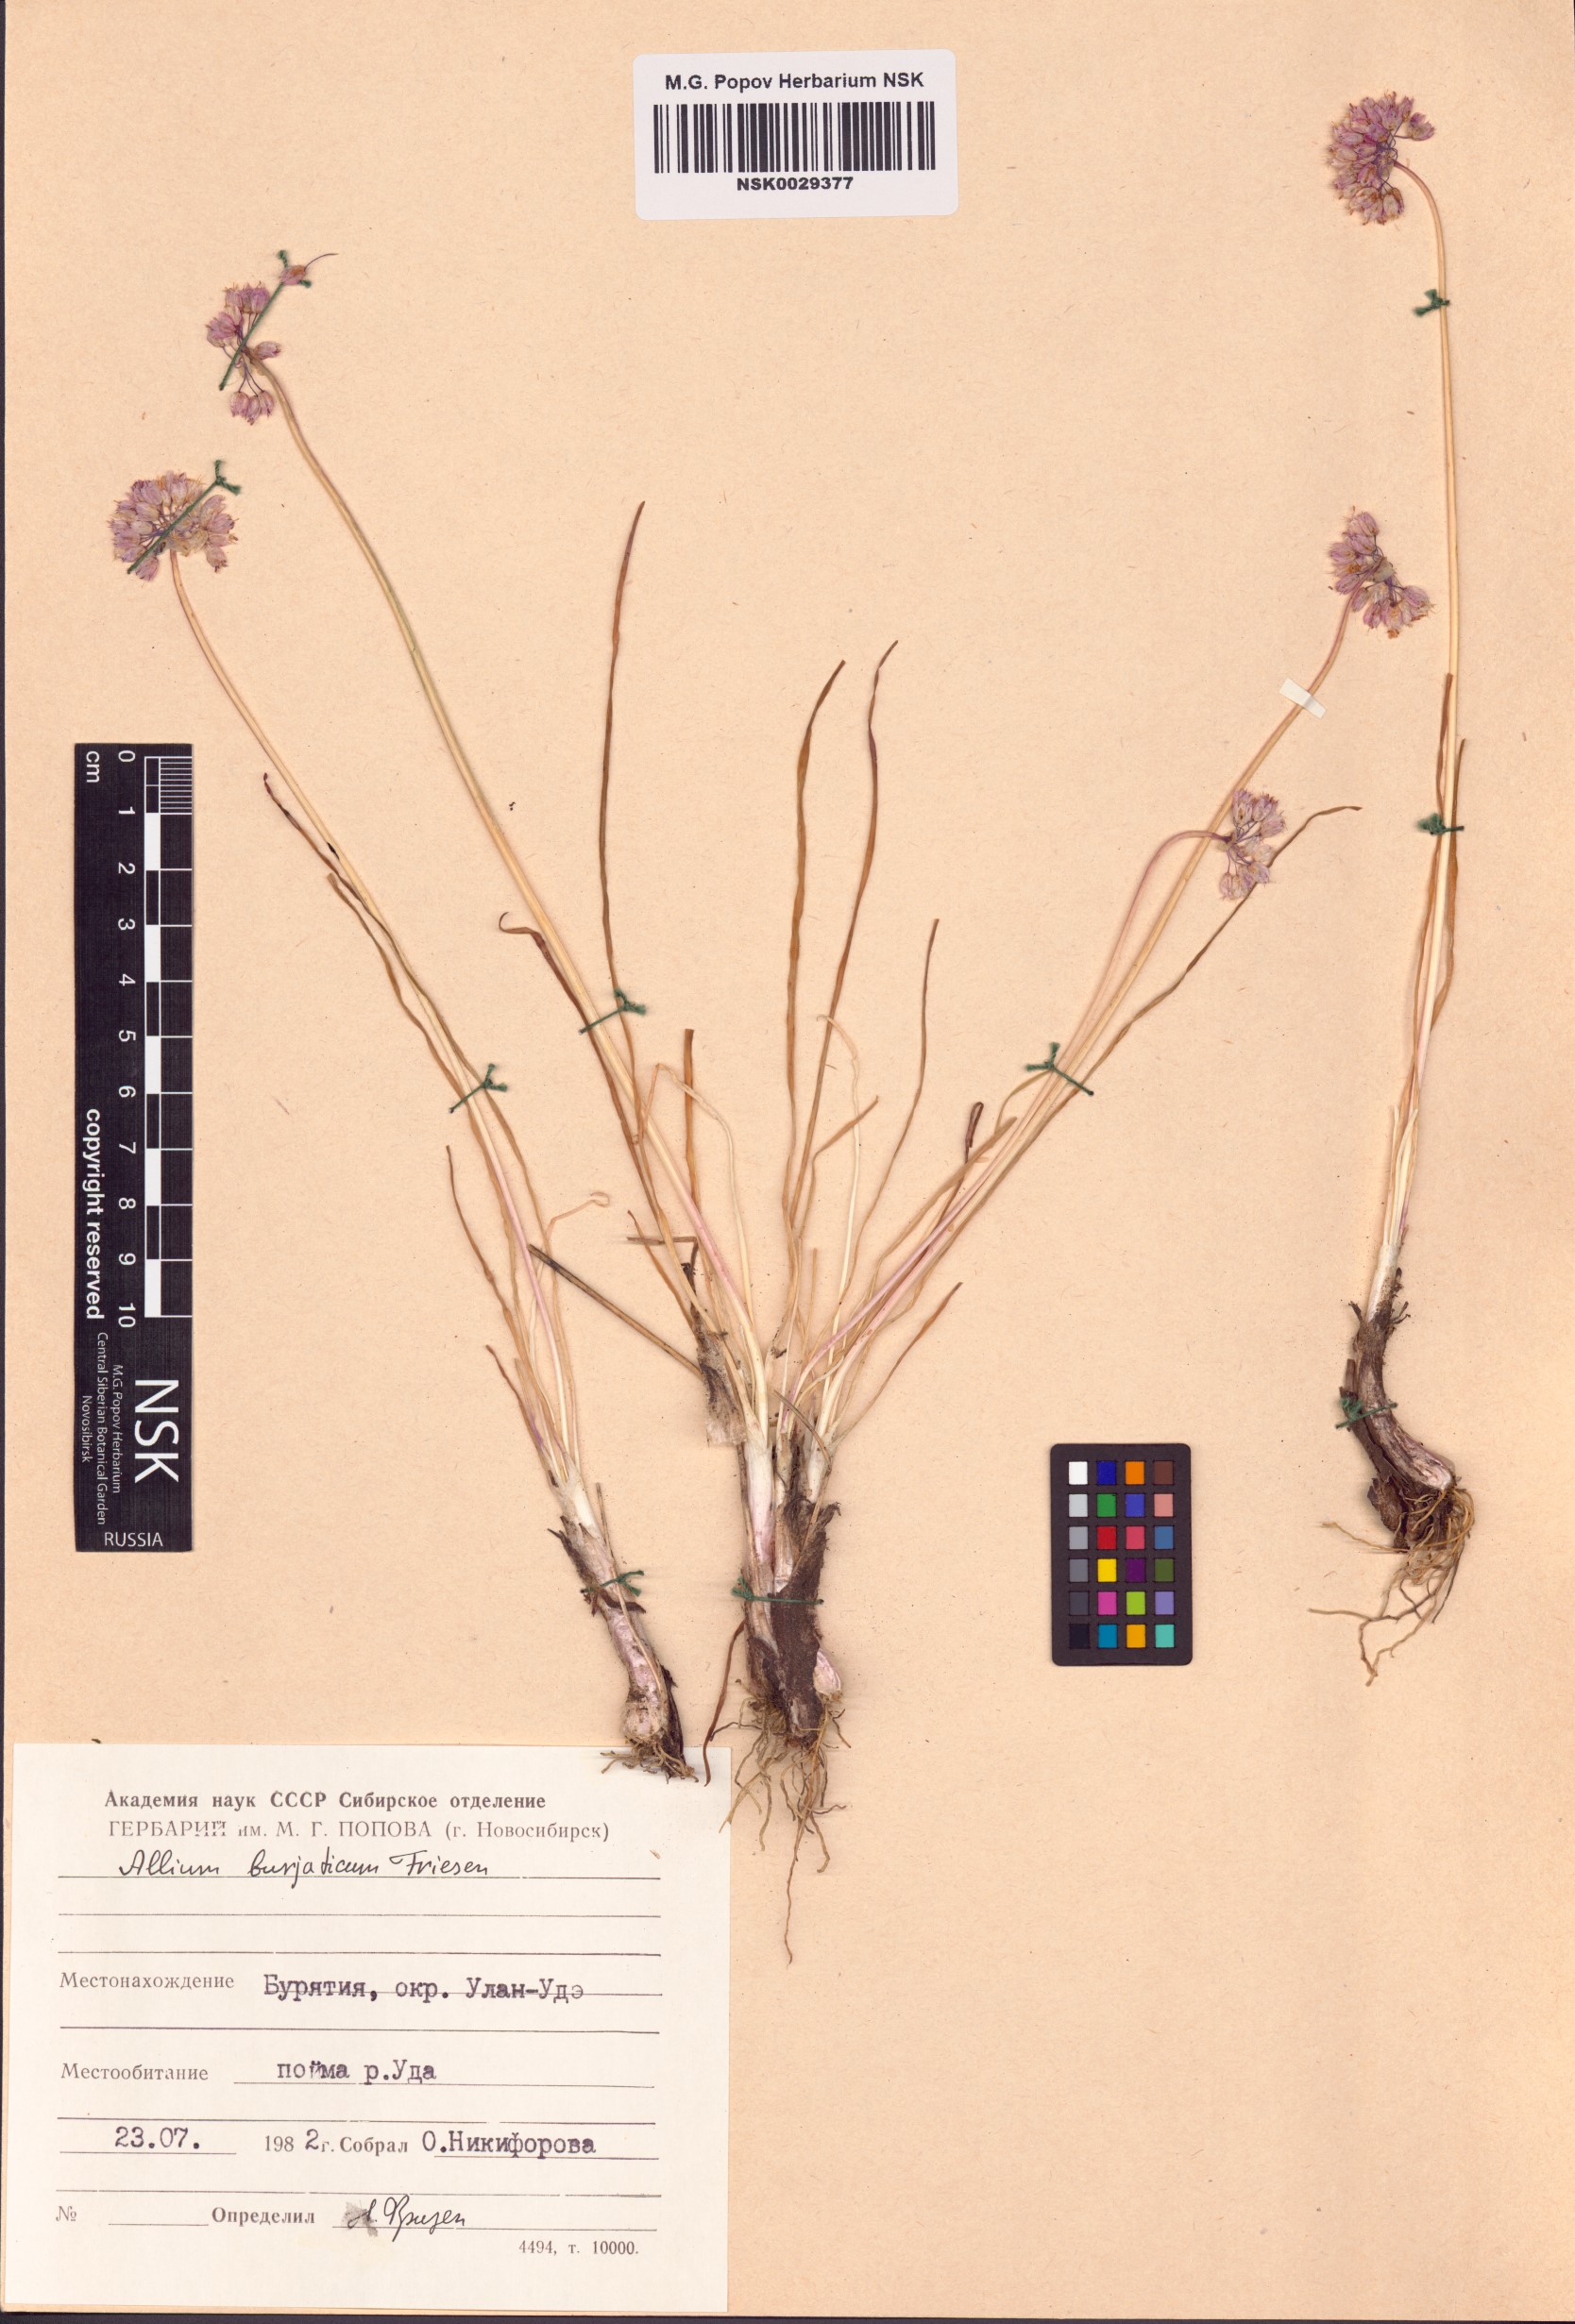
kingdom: Plantae
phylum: Tracheophyta
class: Liliopsida
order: Asparagales
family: Amaryllidaceae
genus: Allium
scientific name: Allium burjaticum
